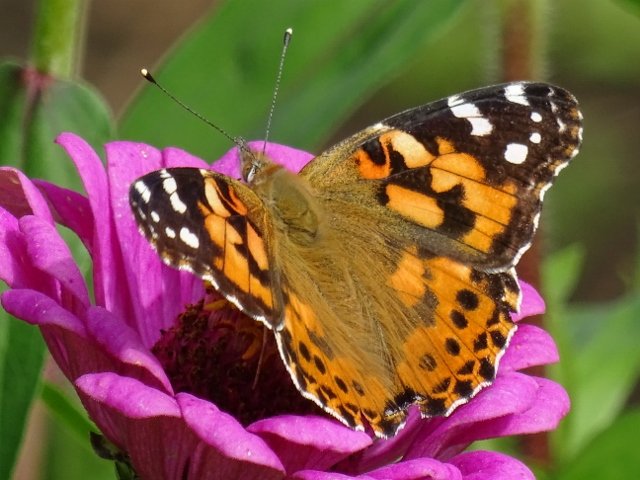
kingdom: Animalia
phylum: Arthropoda
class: Insecta
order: Lepidoptera
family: Nymphalidae
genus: Vanessa
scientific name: Vanessa cardui
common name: Painted Lady
